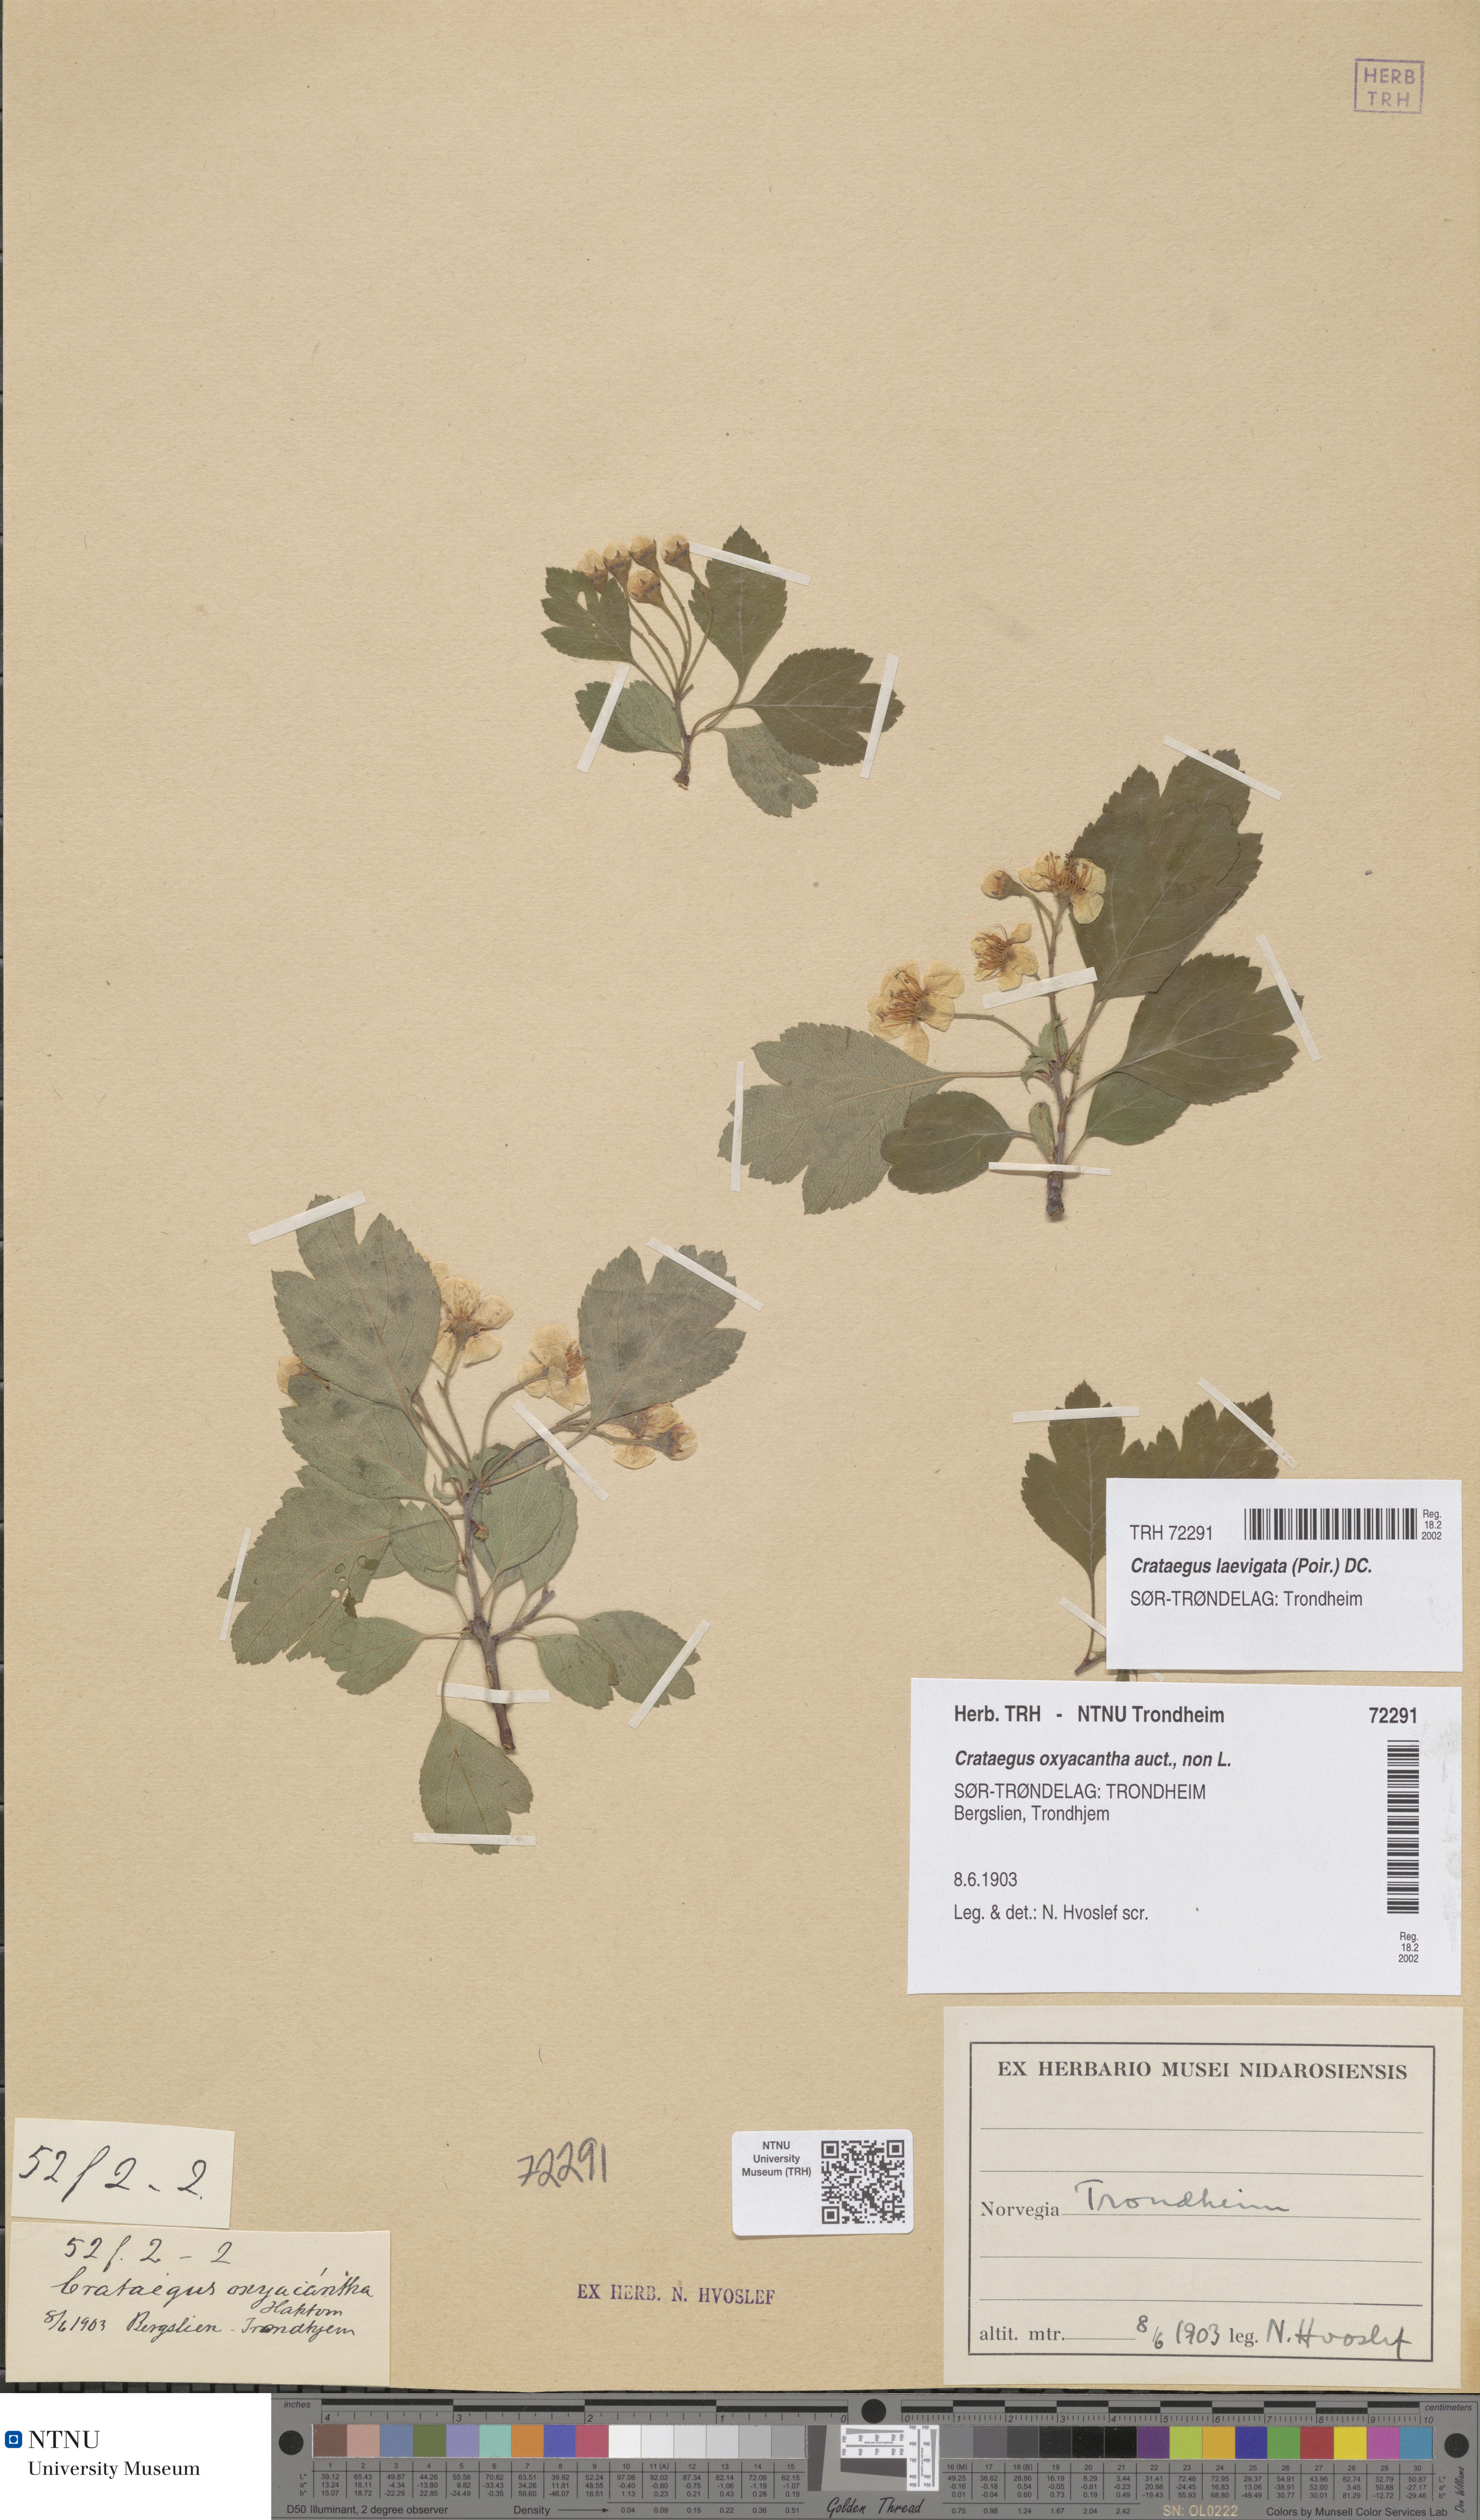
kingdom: Plantae
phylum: Tracheophyta
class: Magnoliopsida
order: Rosales
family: Rosaceae
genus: Crataegus
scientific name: Crataegus laevigata
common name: Midland hawthorn
